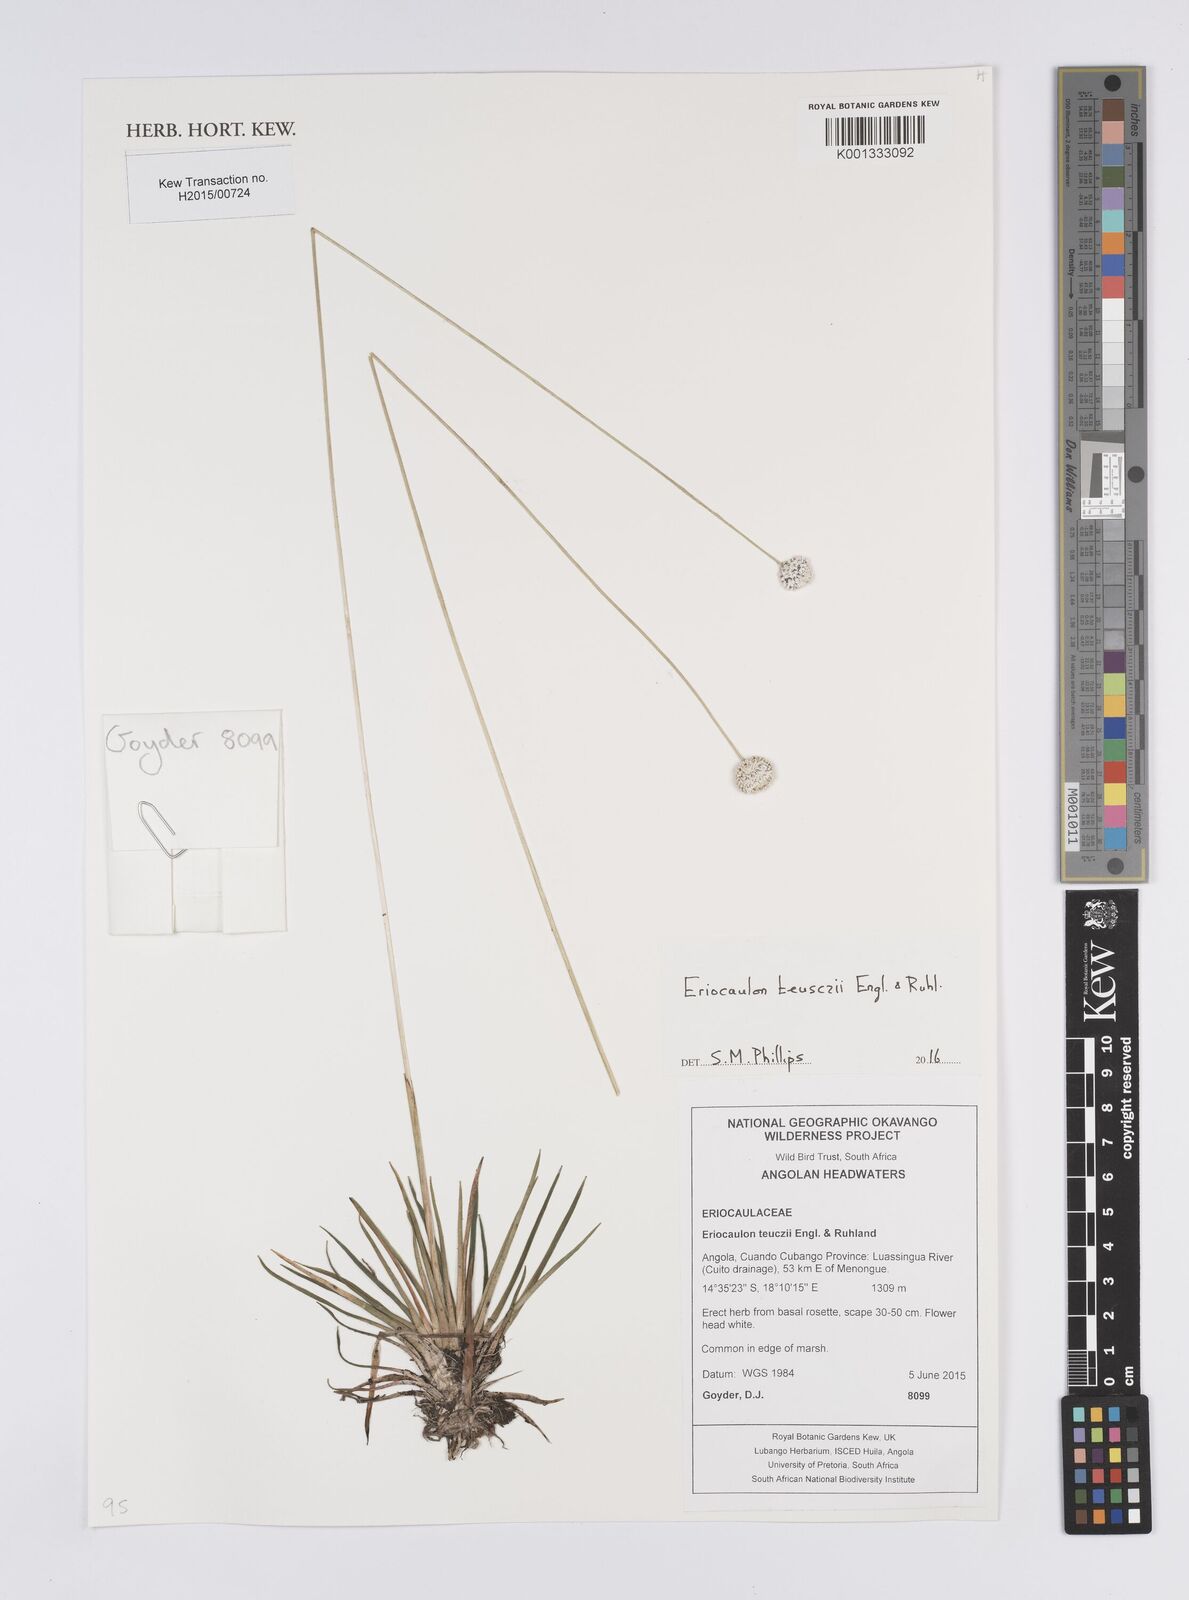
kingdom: Plantae
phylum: Tracheophyta
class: Liliopsida
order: Poales
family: Eriocaulaceae
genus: Eriocaulon
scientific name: Eriocaulon teusczii
